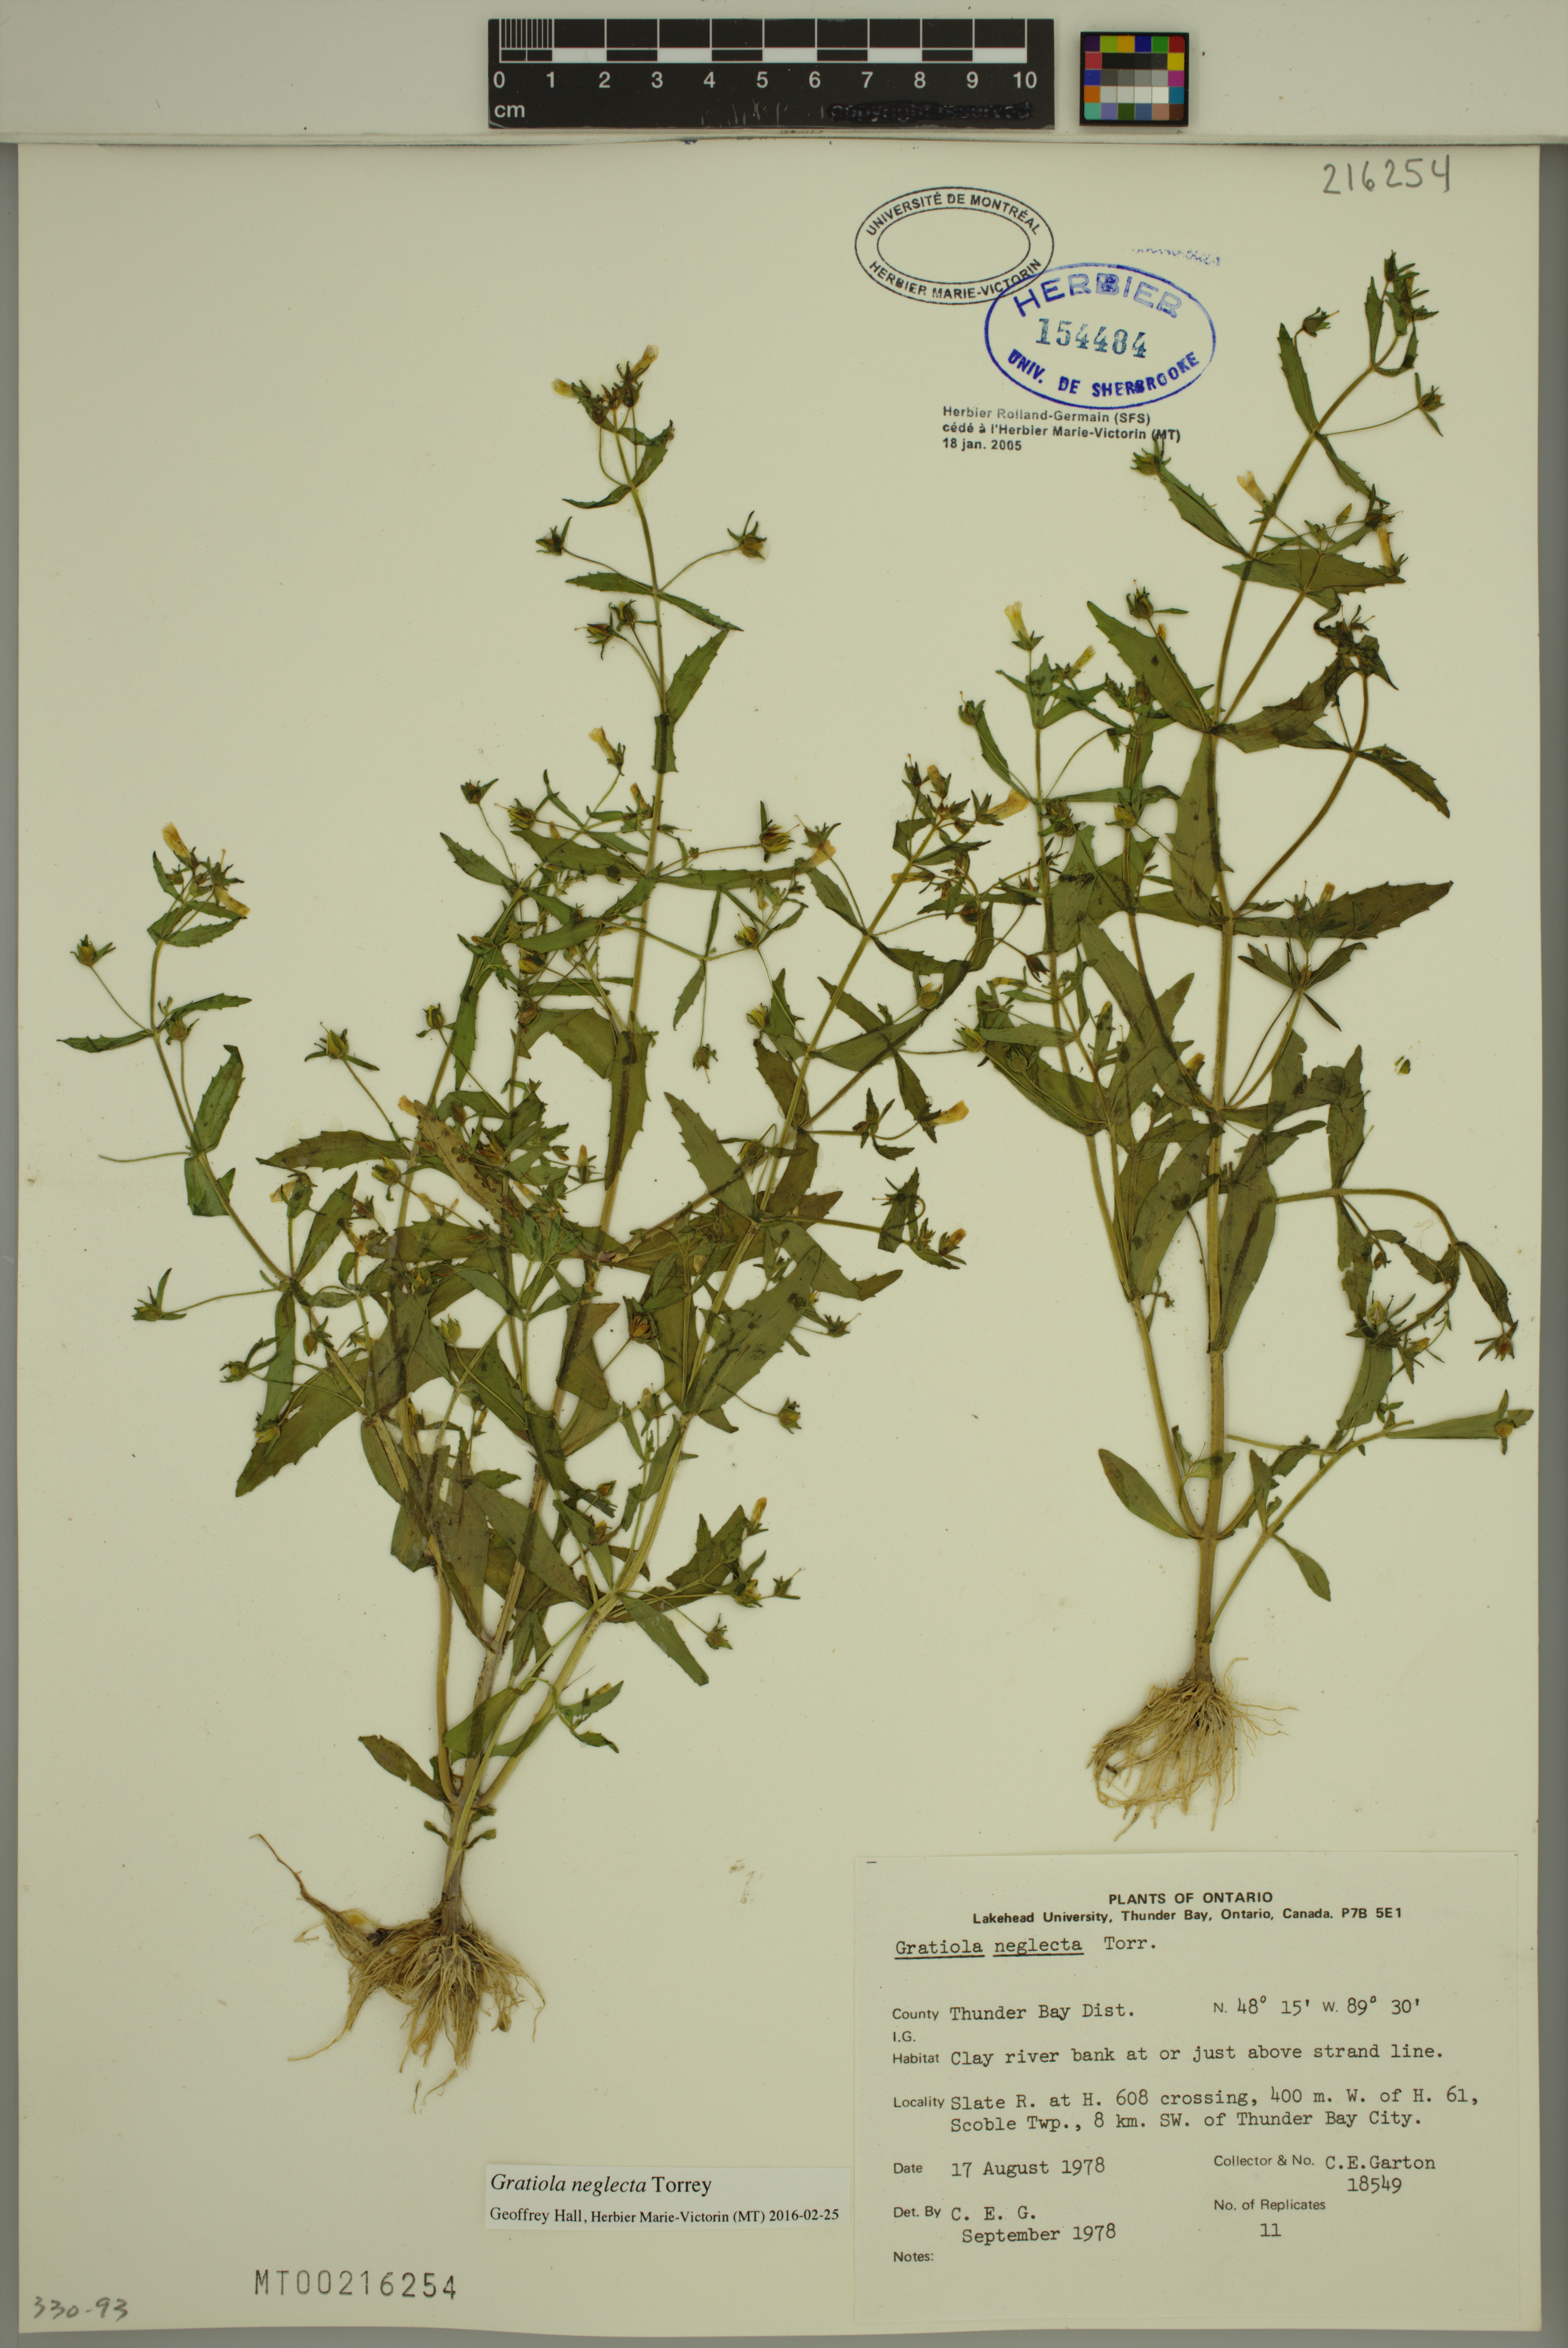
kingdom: Plantae
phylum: Tracheophyta
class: Magnoliopsida
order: Lamiales
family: Plantaginaceae
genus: Gratiola
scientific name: Gratiola neglecta
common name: American hedge-hyssop
